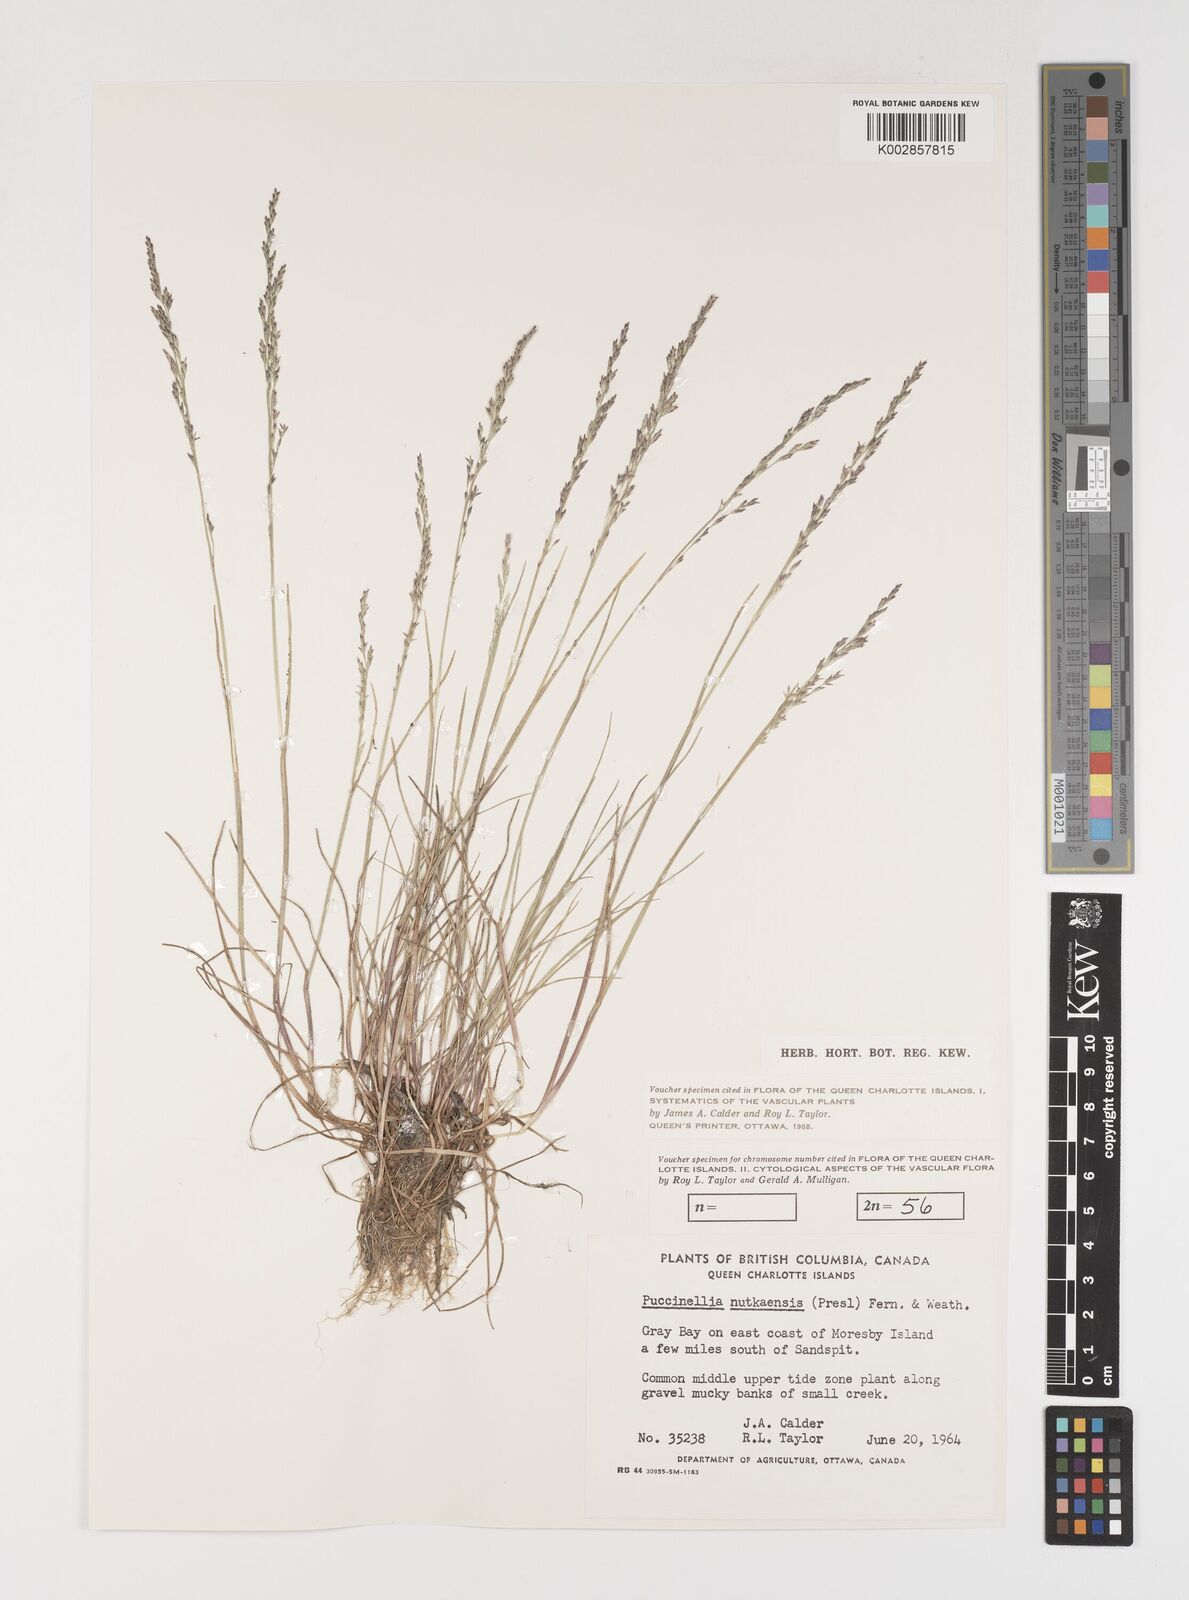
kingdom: Plantae
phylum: Tracheophyta
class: Liliopsida
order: Poales
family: Poaceae
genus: Puccinellia
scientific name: Puccinellia nutkaensis
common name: Nootka alkaligrass
